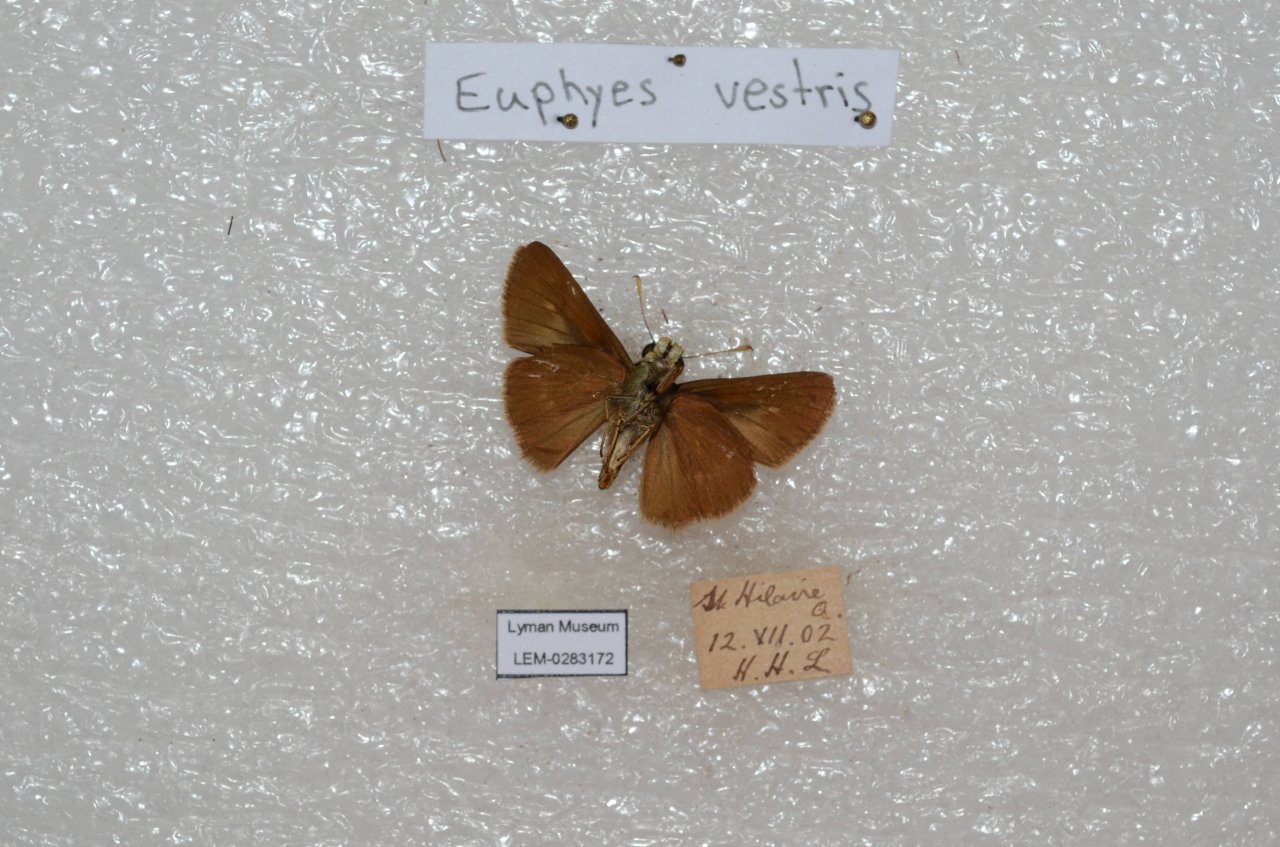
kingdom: Animalia
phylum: Arthropoda
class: Insecta
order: Lepidoptera
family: Hesperiidae
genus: Euphyes
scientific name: Euphyes vestris
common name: Dun Skipper
